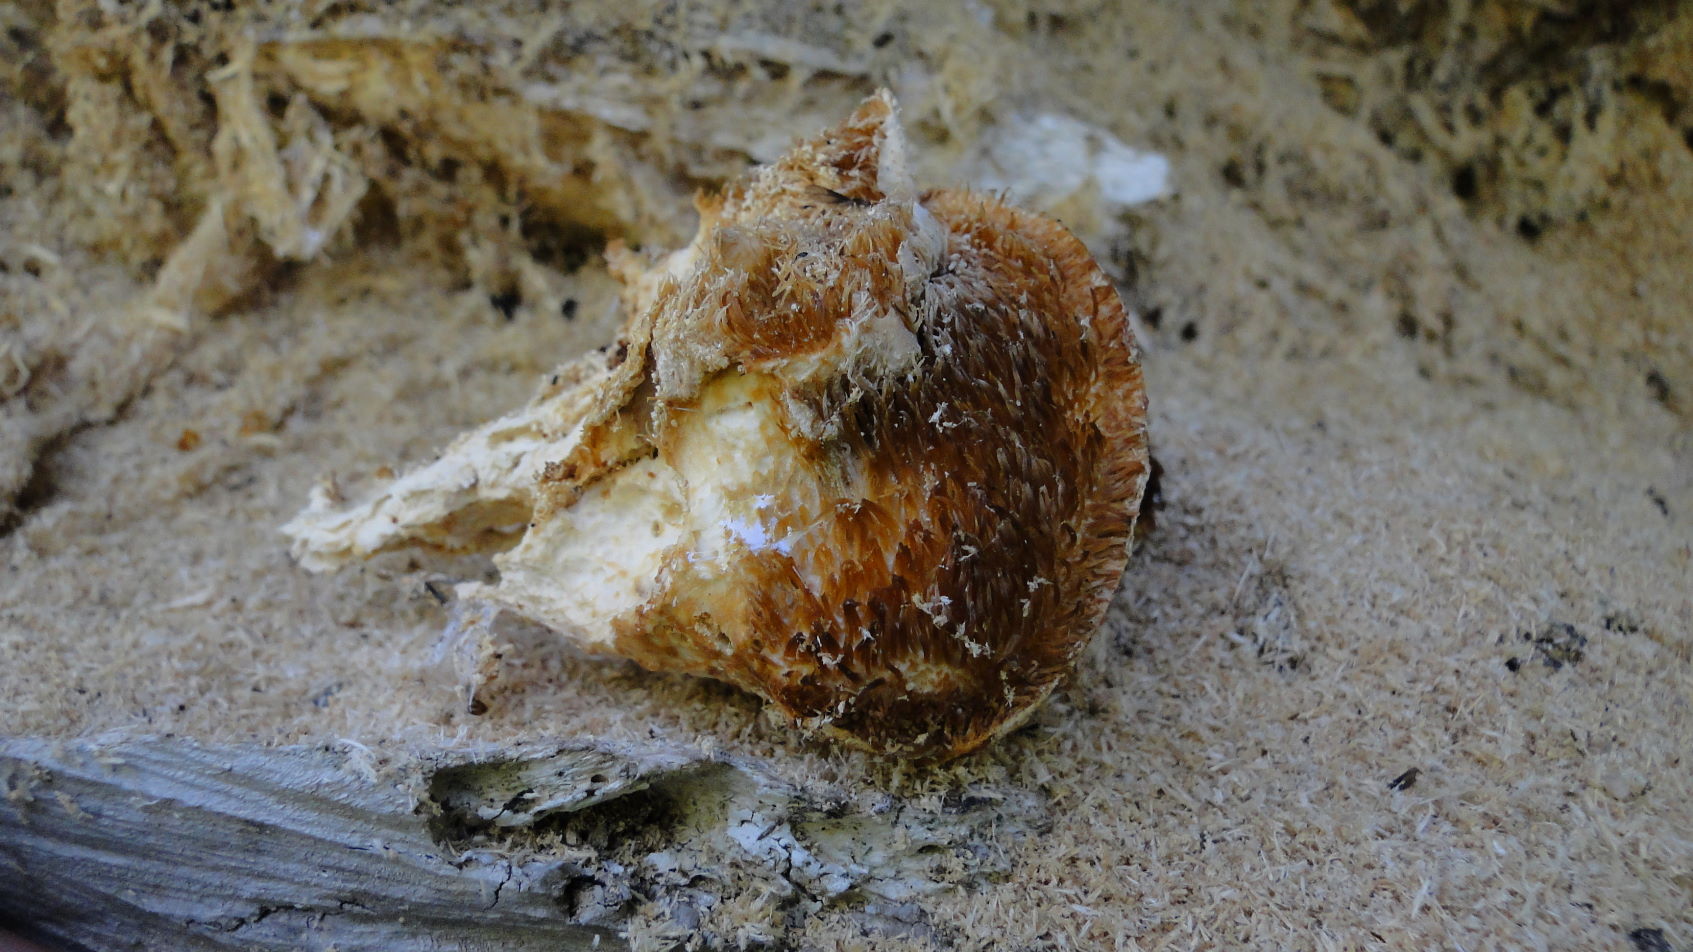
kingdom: Fungi
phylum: Basidiomycota
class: Agaricomycetes
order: Russulales
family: Hericiaceae
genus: Hericium
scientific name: Hericium cirrhatum
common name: børstepigsvamp
